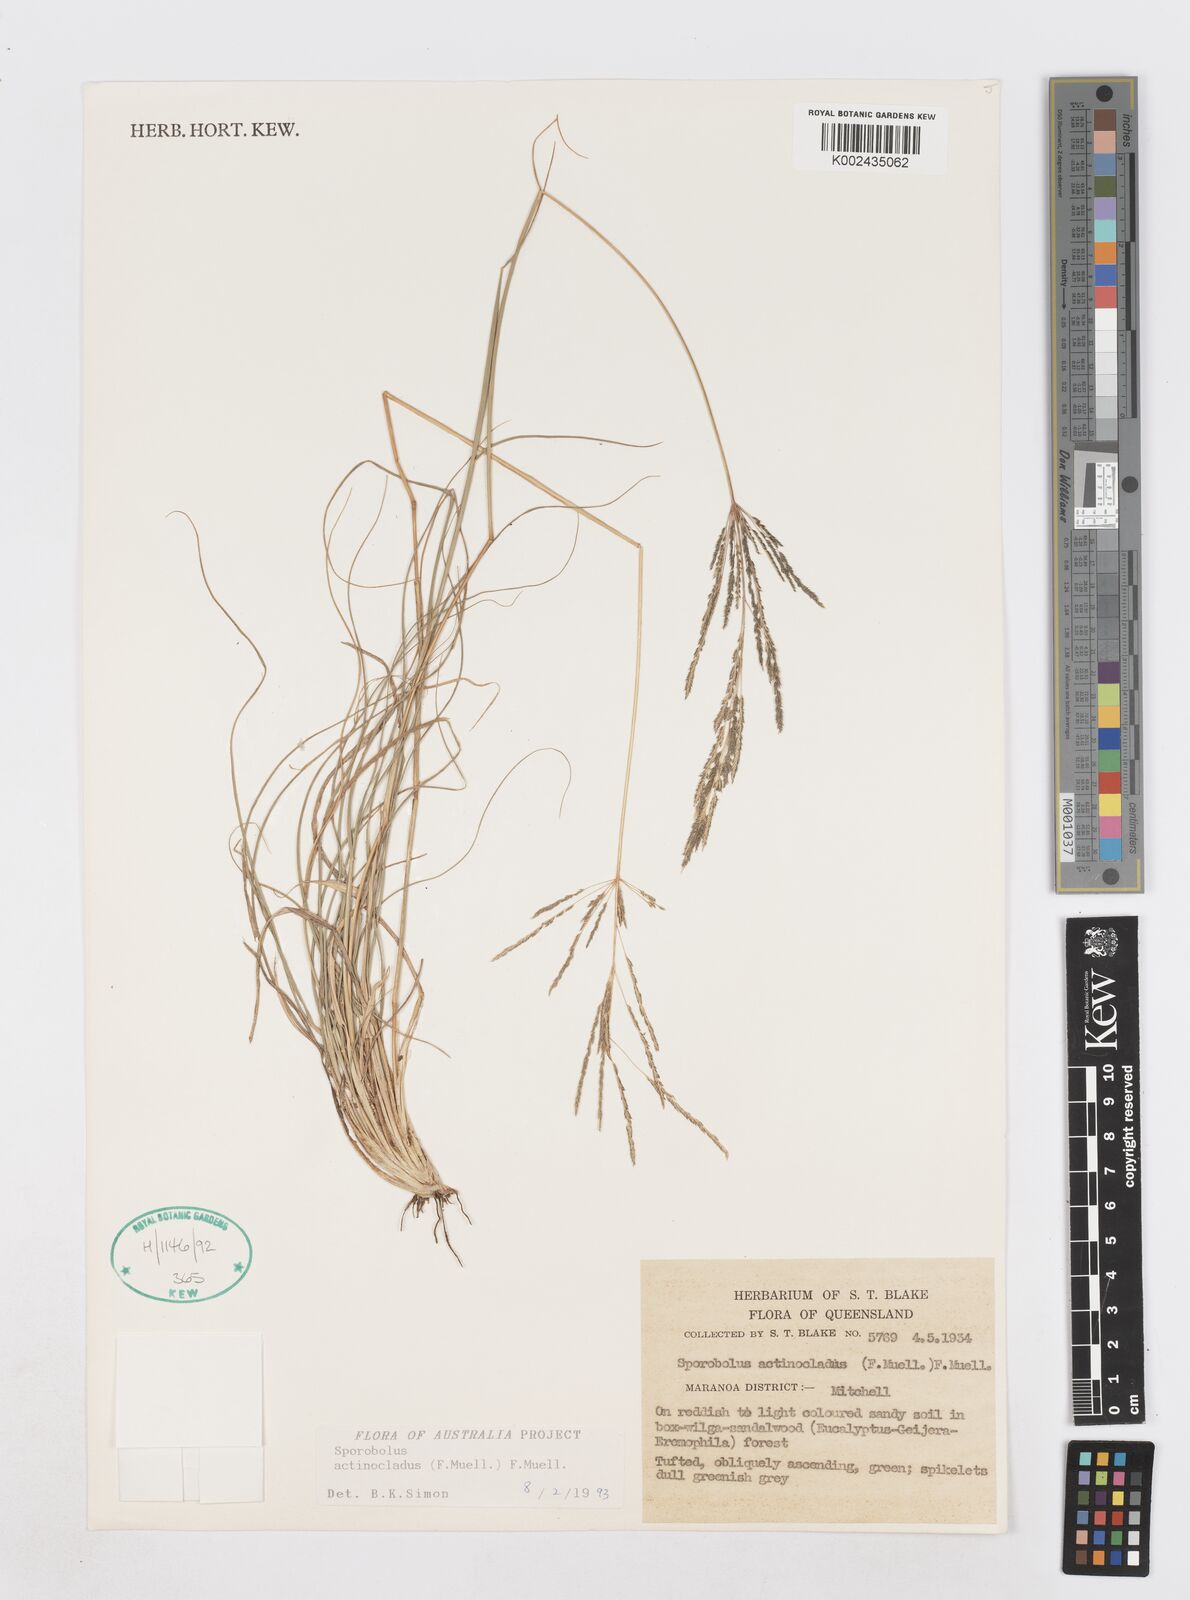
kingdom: Plantae
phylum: Tracheophyta
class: Liliopsida
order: Poales
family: Poaceae
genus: Sporobolus
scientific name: Sporobolus actinocladus
